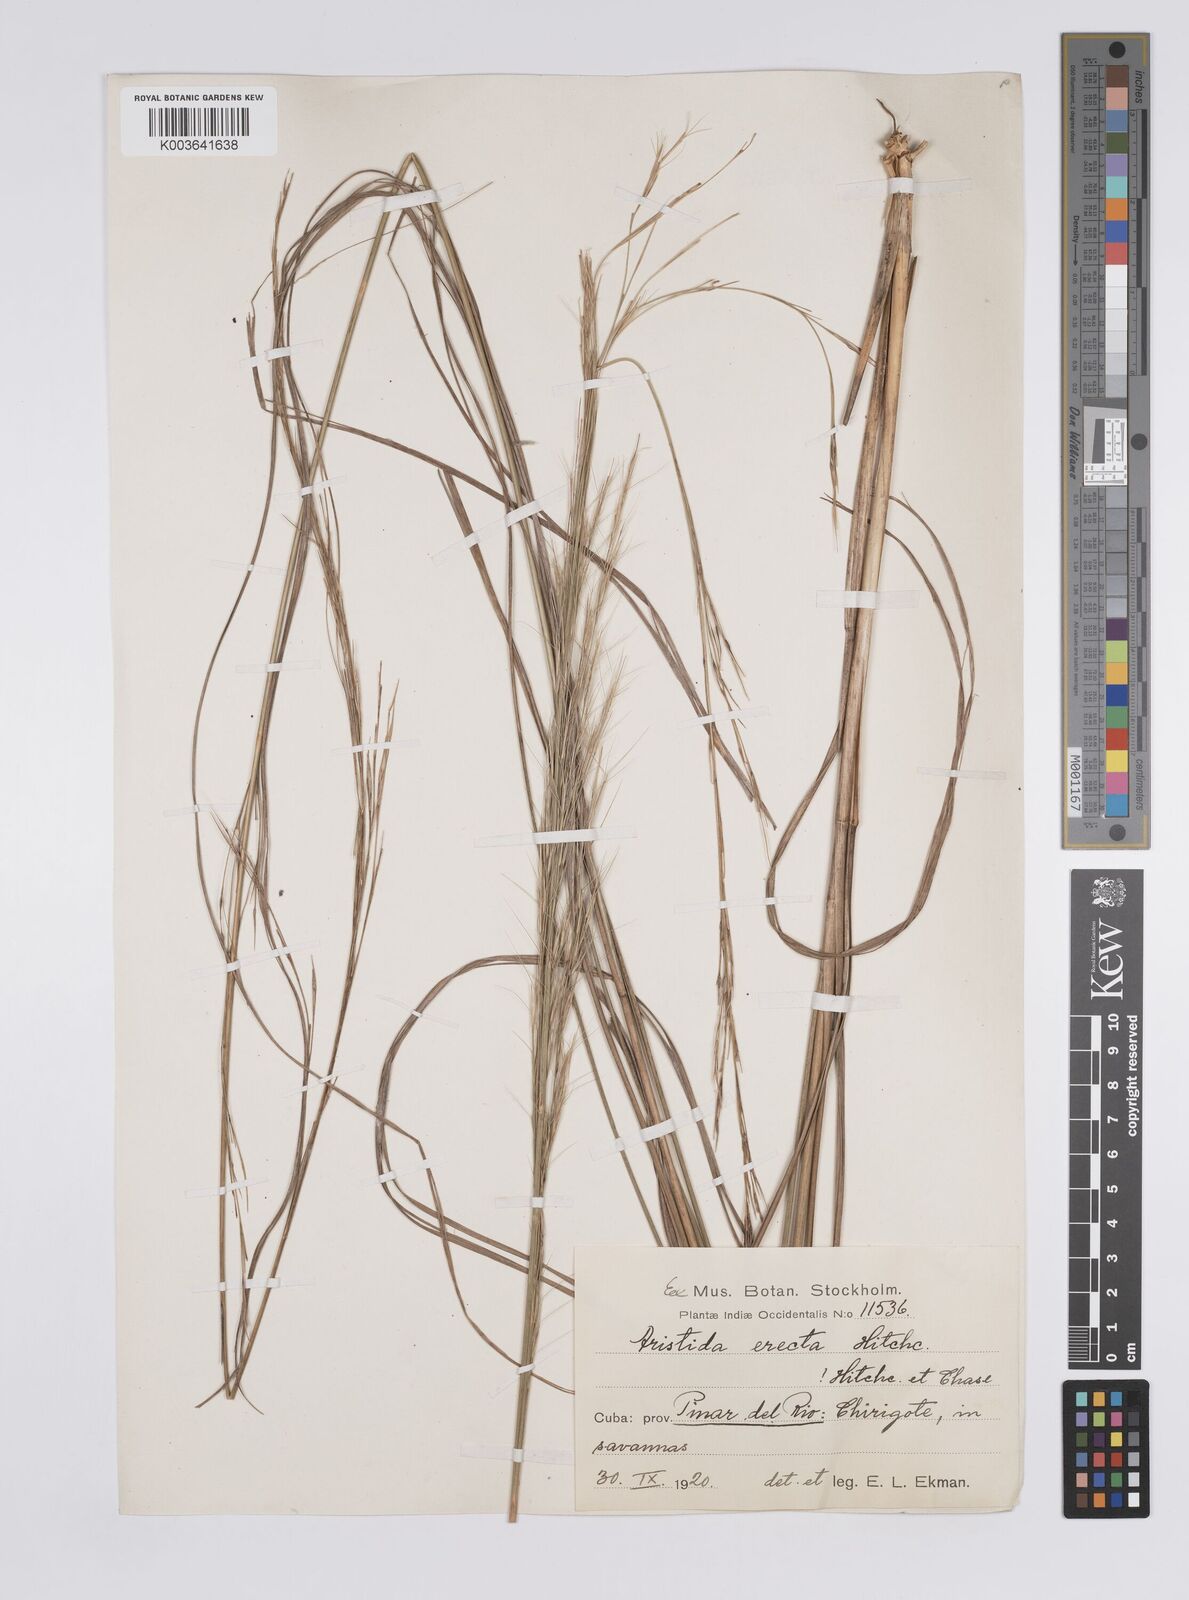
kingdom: Plantae
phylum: Tracheophyta
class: Liliopsida
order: Poales
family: Poaceae
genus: Aristida
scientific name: Aristida erecta
